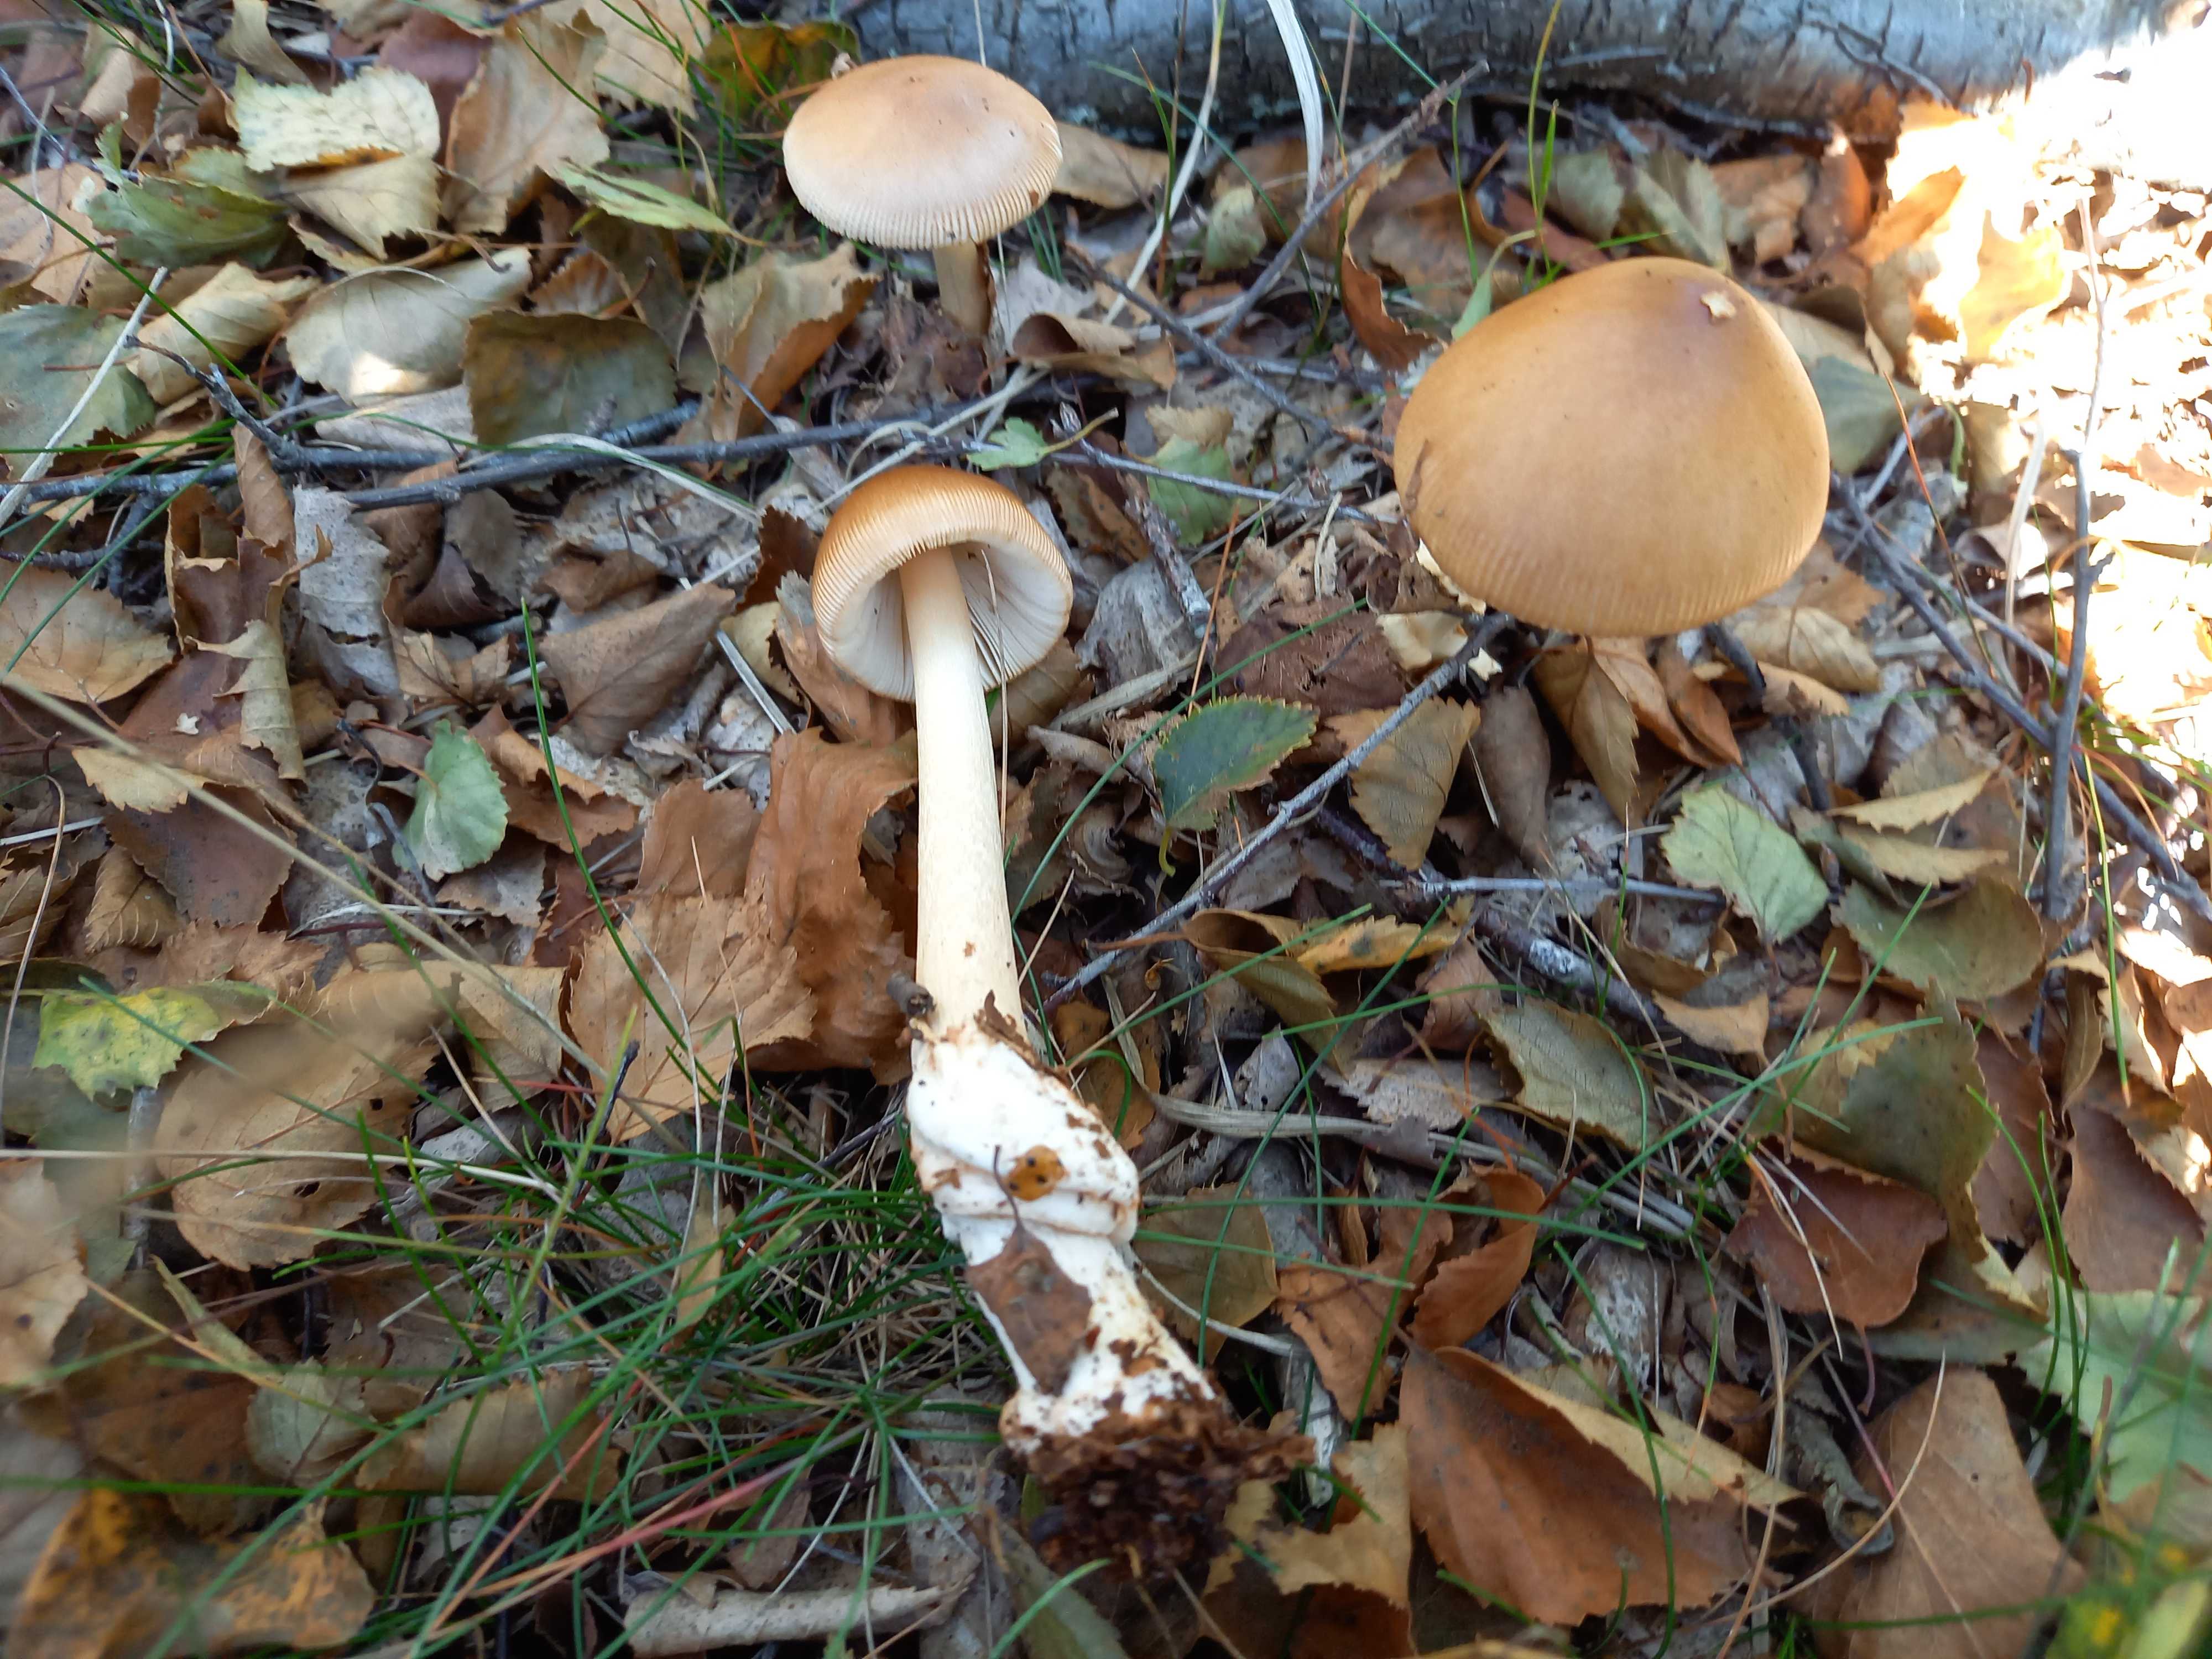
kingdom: Fungi
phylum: Basidiomycota
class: Agaricomycetes
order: Agaricales
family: Amanitaceae
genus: Amanita
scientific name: Amanita fulva
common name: brun kam-fluesvamp
